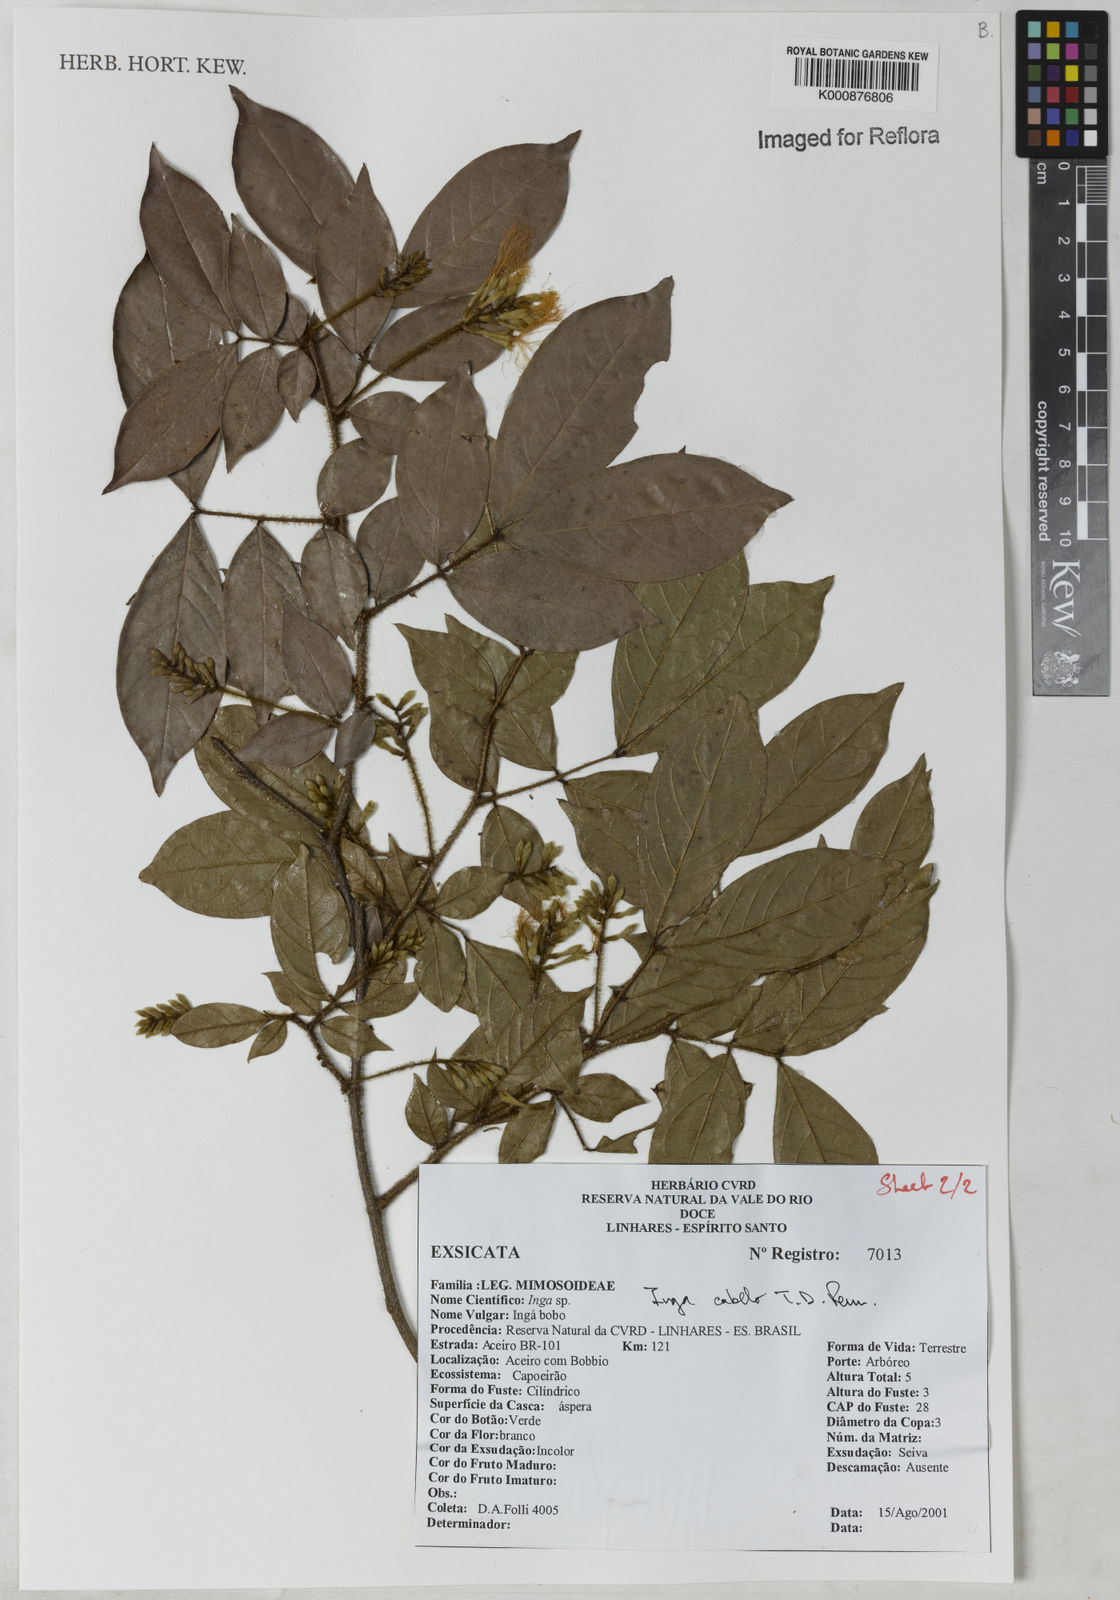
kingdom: Plantae
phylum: Tracheophyta
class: Magnoliopsida
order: Fabales
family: Fabaceae
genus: Inga
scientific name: Inga cabelo
